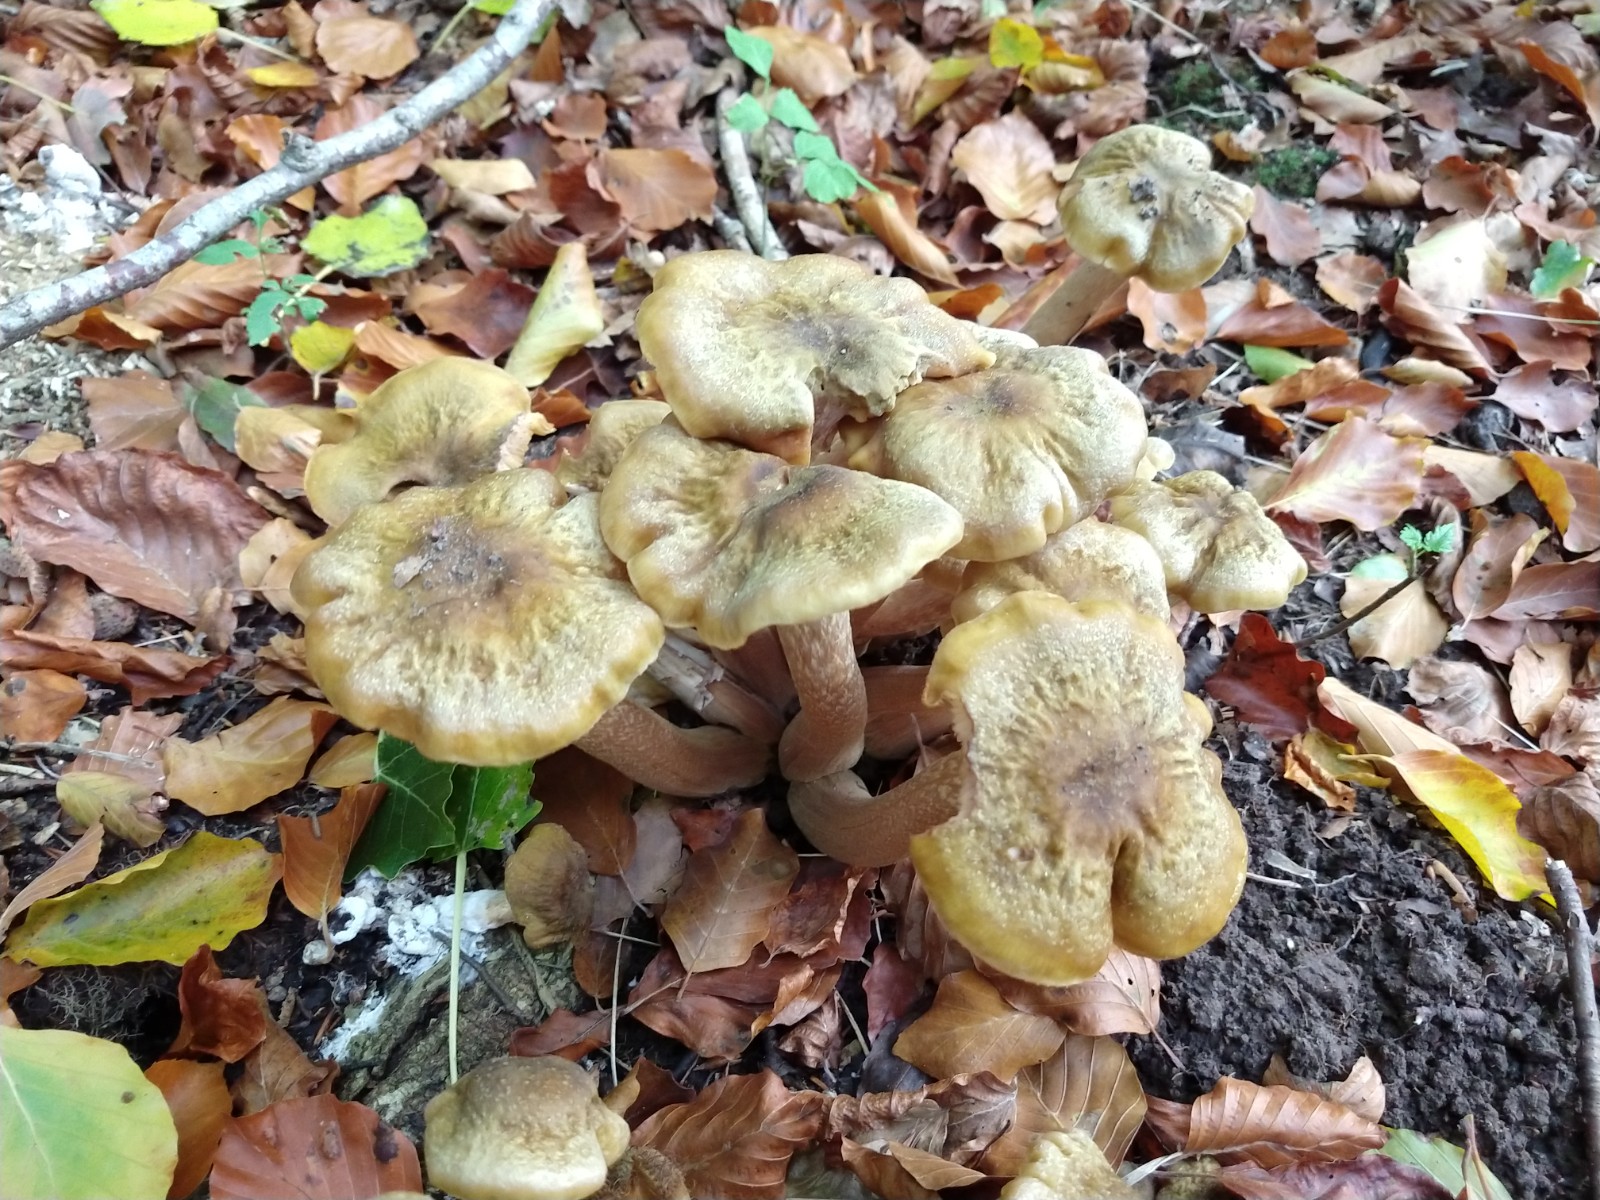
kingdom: Fungi
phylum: Basidiomycota
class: Agaricomycetes
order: Agaricales
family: Physalacriaceae
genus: Armillaria
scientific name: Armillaria mellea
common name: ægte honningsvamp
